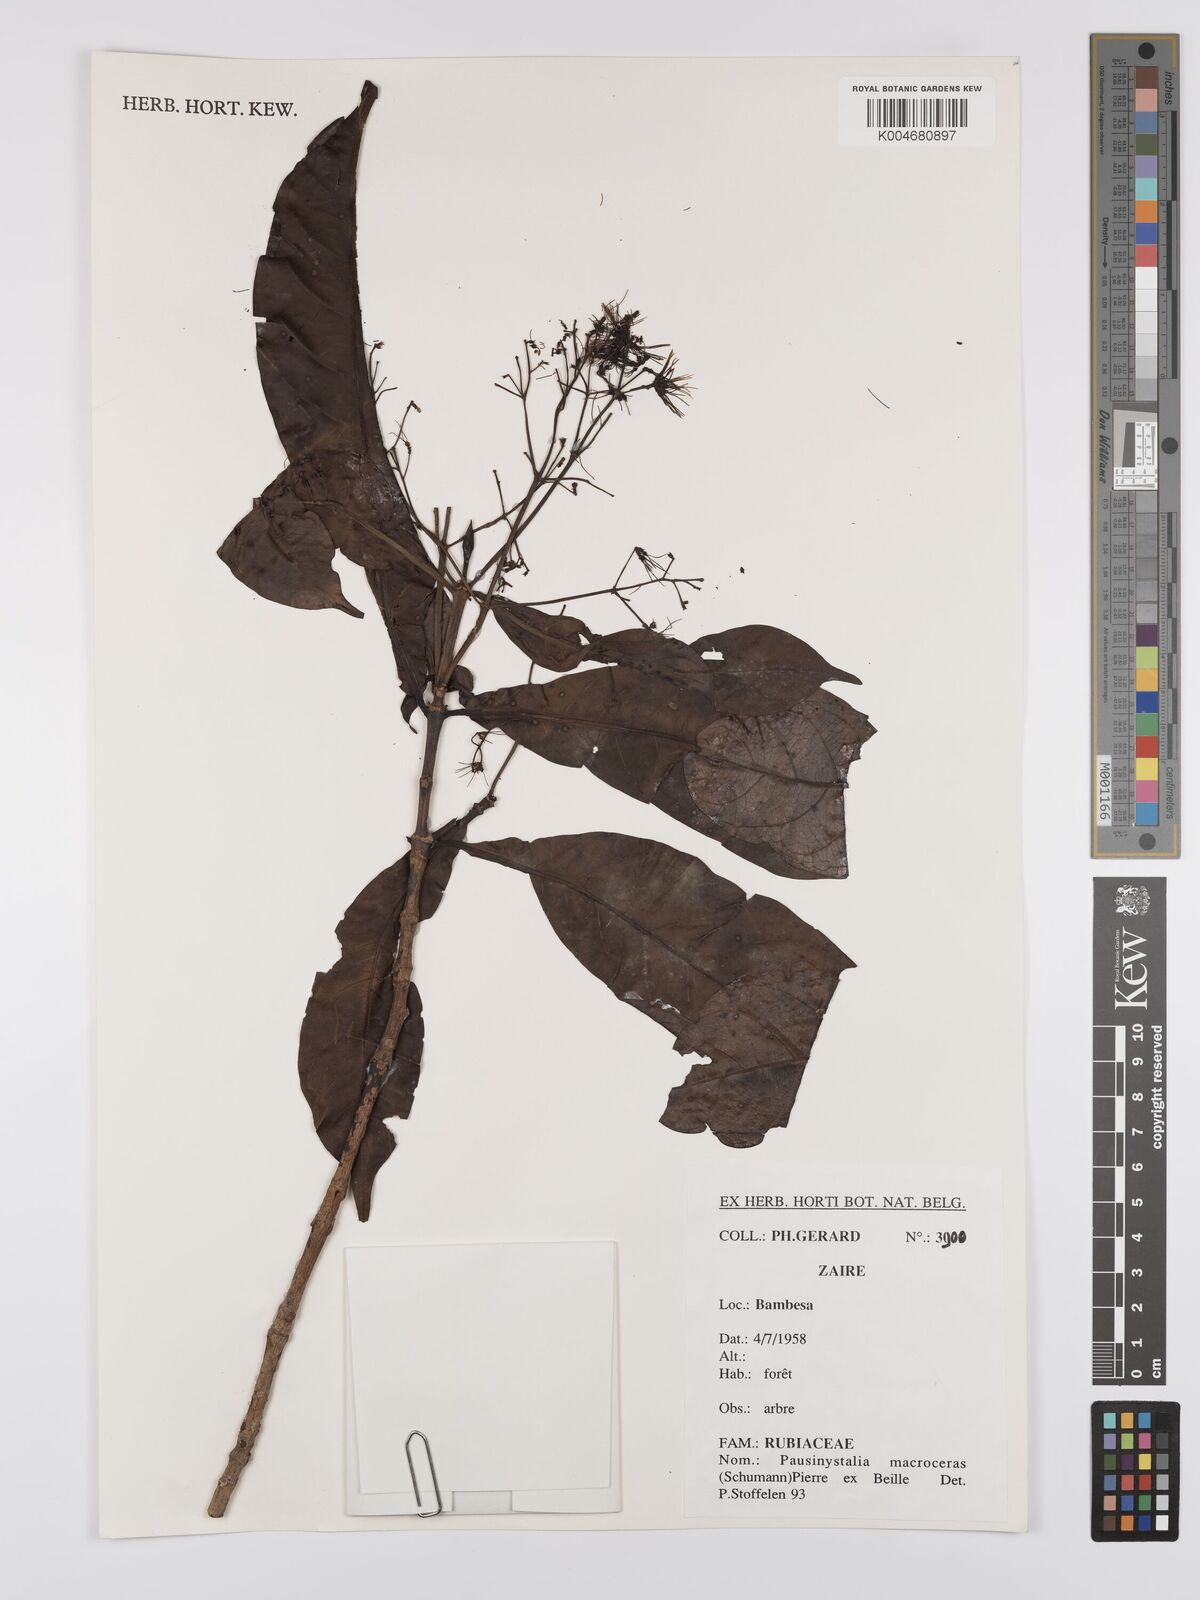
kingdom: Plantae
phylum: Tracheophyta
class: Magnoliopsida
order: Gentianales
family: Rubiaceae
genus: Corynanthe
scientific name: Corynanthe macroceras
